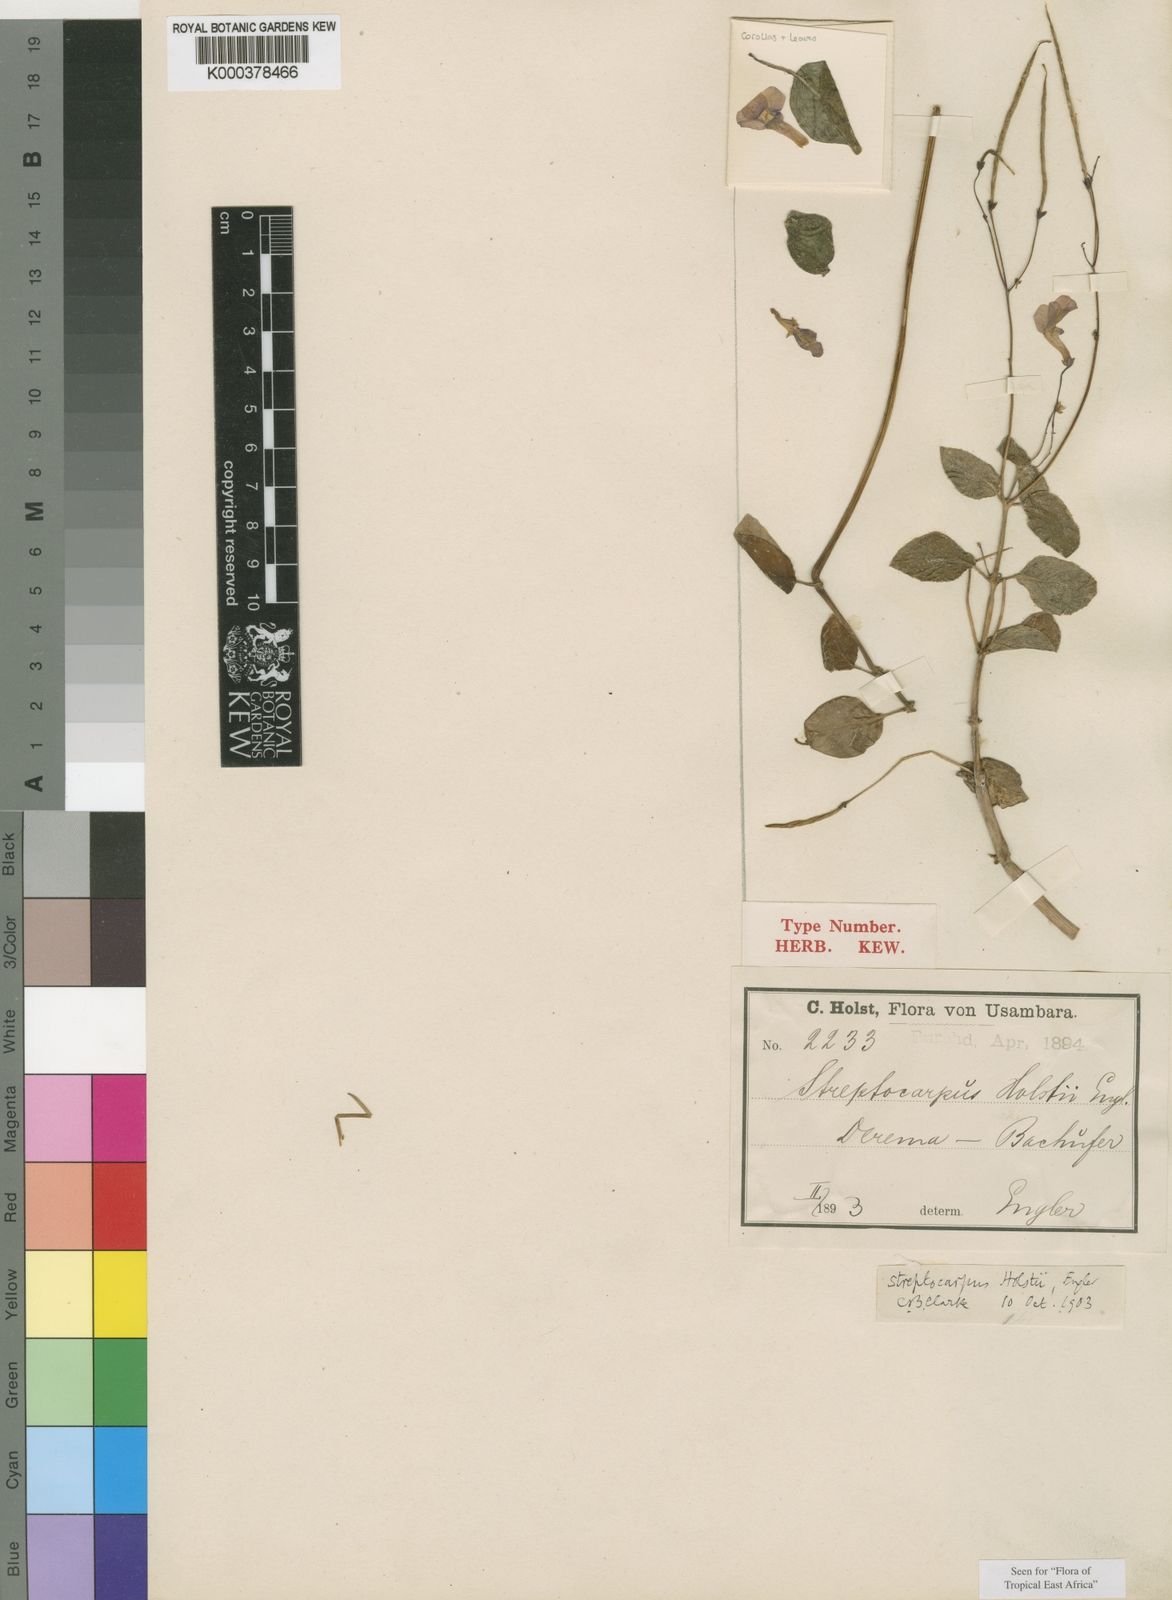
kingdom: Plantae
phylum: Tracheophyta
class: Magnoliopsida
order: Lamiales
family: Gesneriaceae
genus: Streptocarpus
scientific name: Streptocarpus holstii
